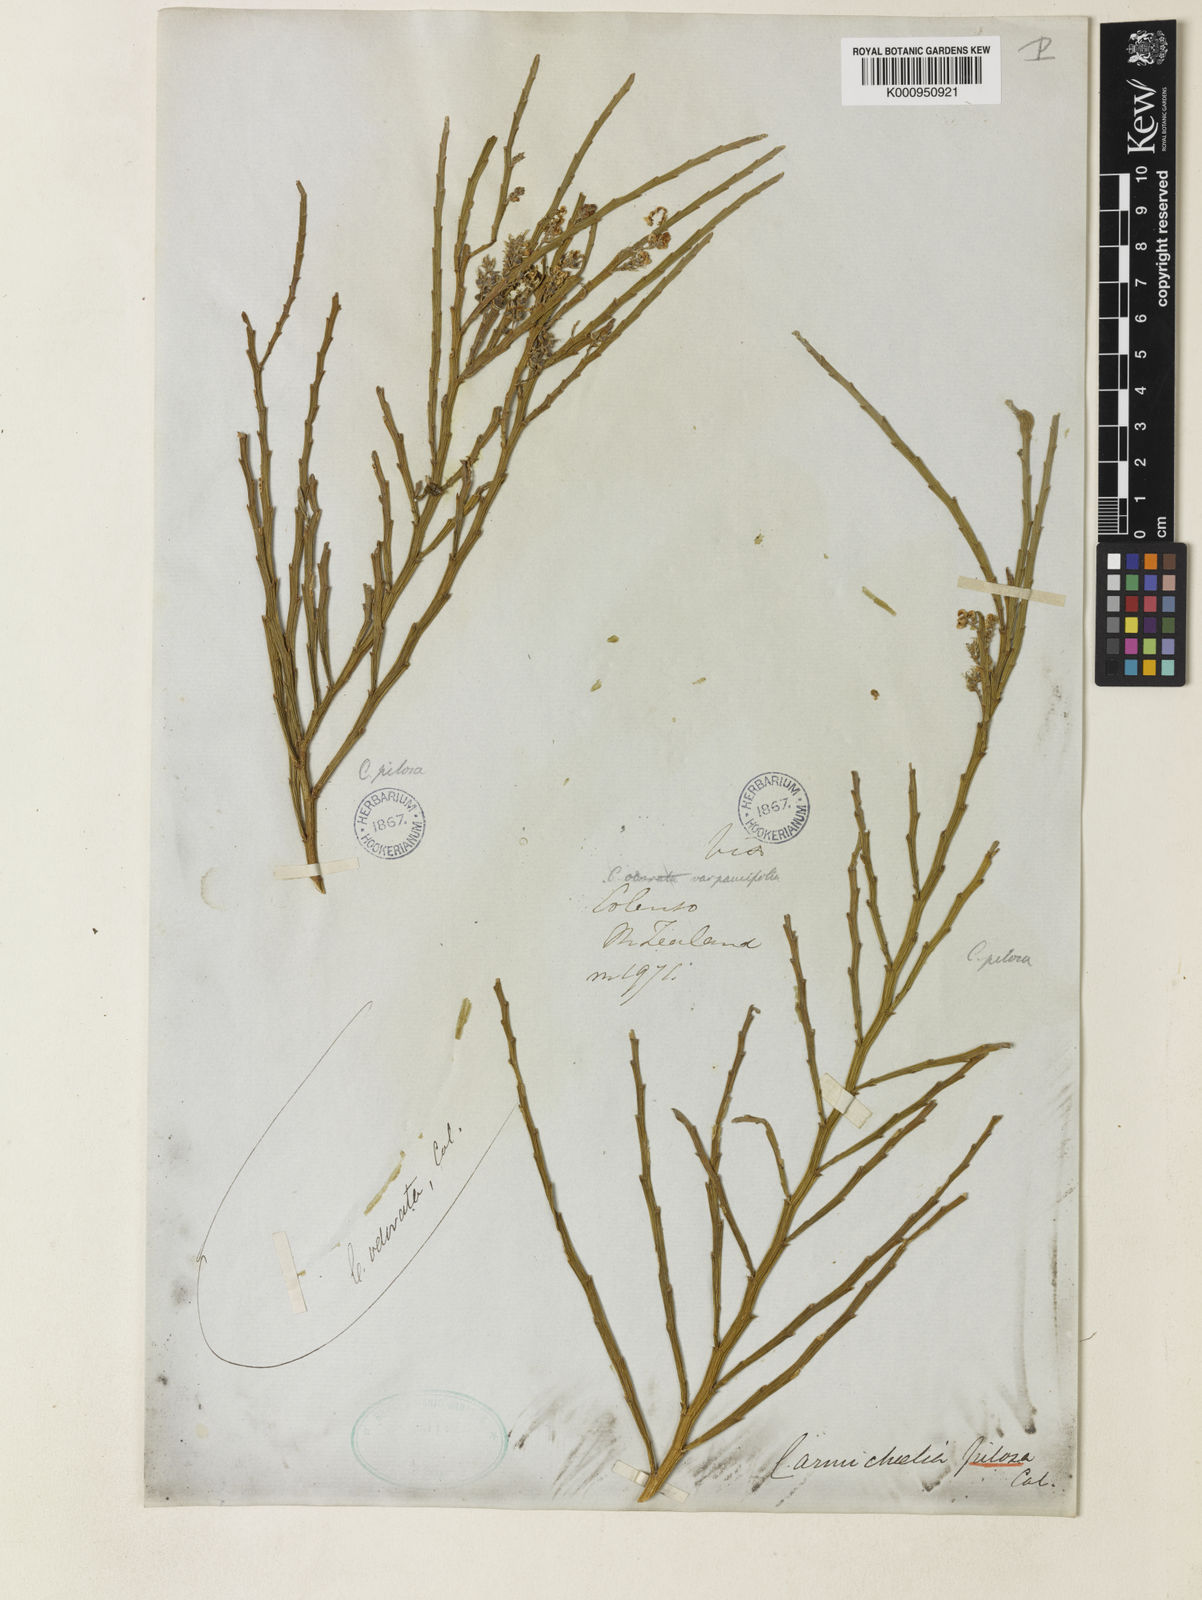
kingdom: Plantae
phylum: Tracheophyta
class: Magnoliopsida
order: Fabales
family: Fabaceae
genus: Carmichaelia
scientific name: Carmichaelia odorata
